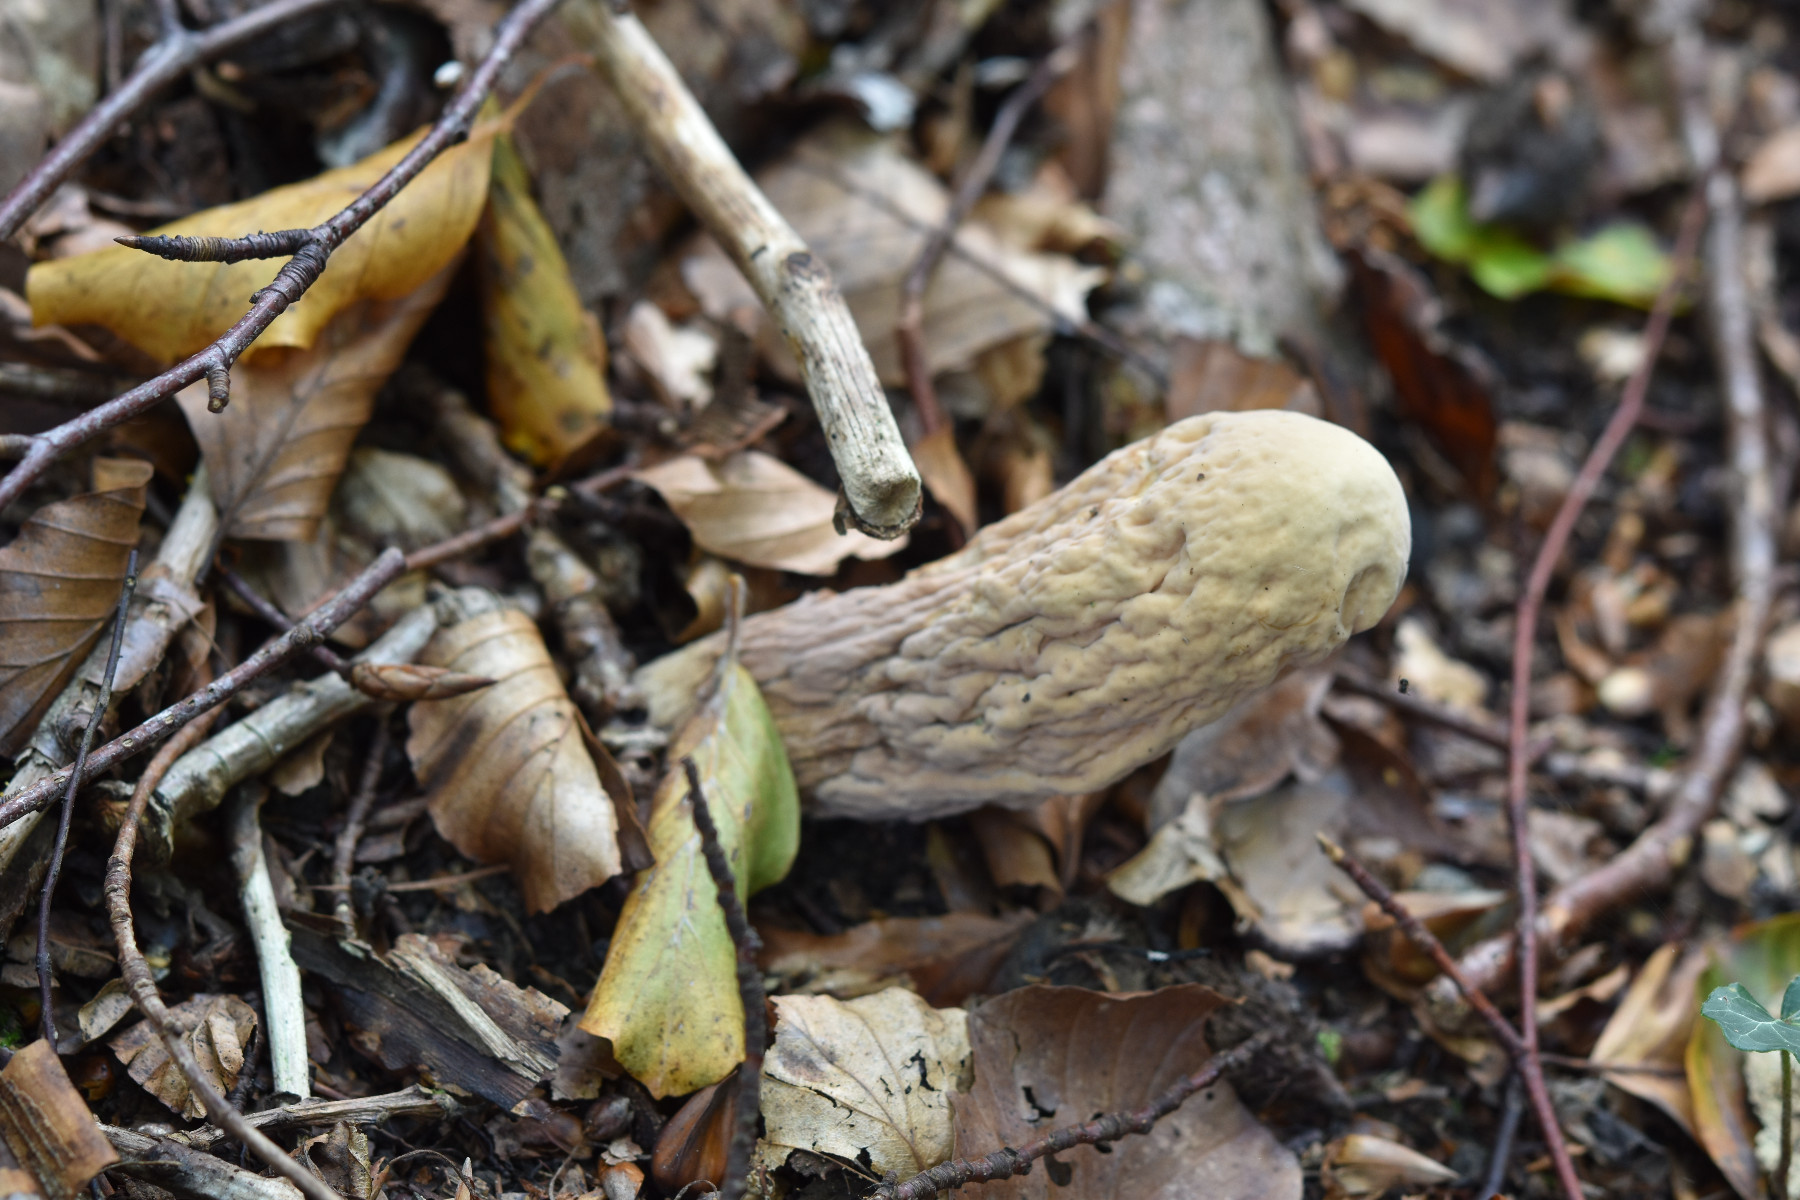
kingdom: Fungi
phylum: Basidiomycota
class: Agaricomycetes
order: Gomphales
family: Clavariadelphaceae
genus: Clavariadelphus
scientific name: Clavariadelphus pistillaris
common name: herkules-kæmpekølle
